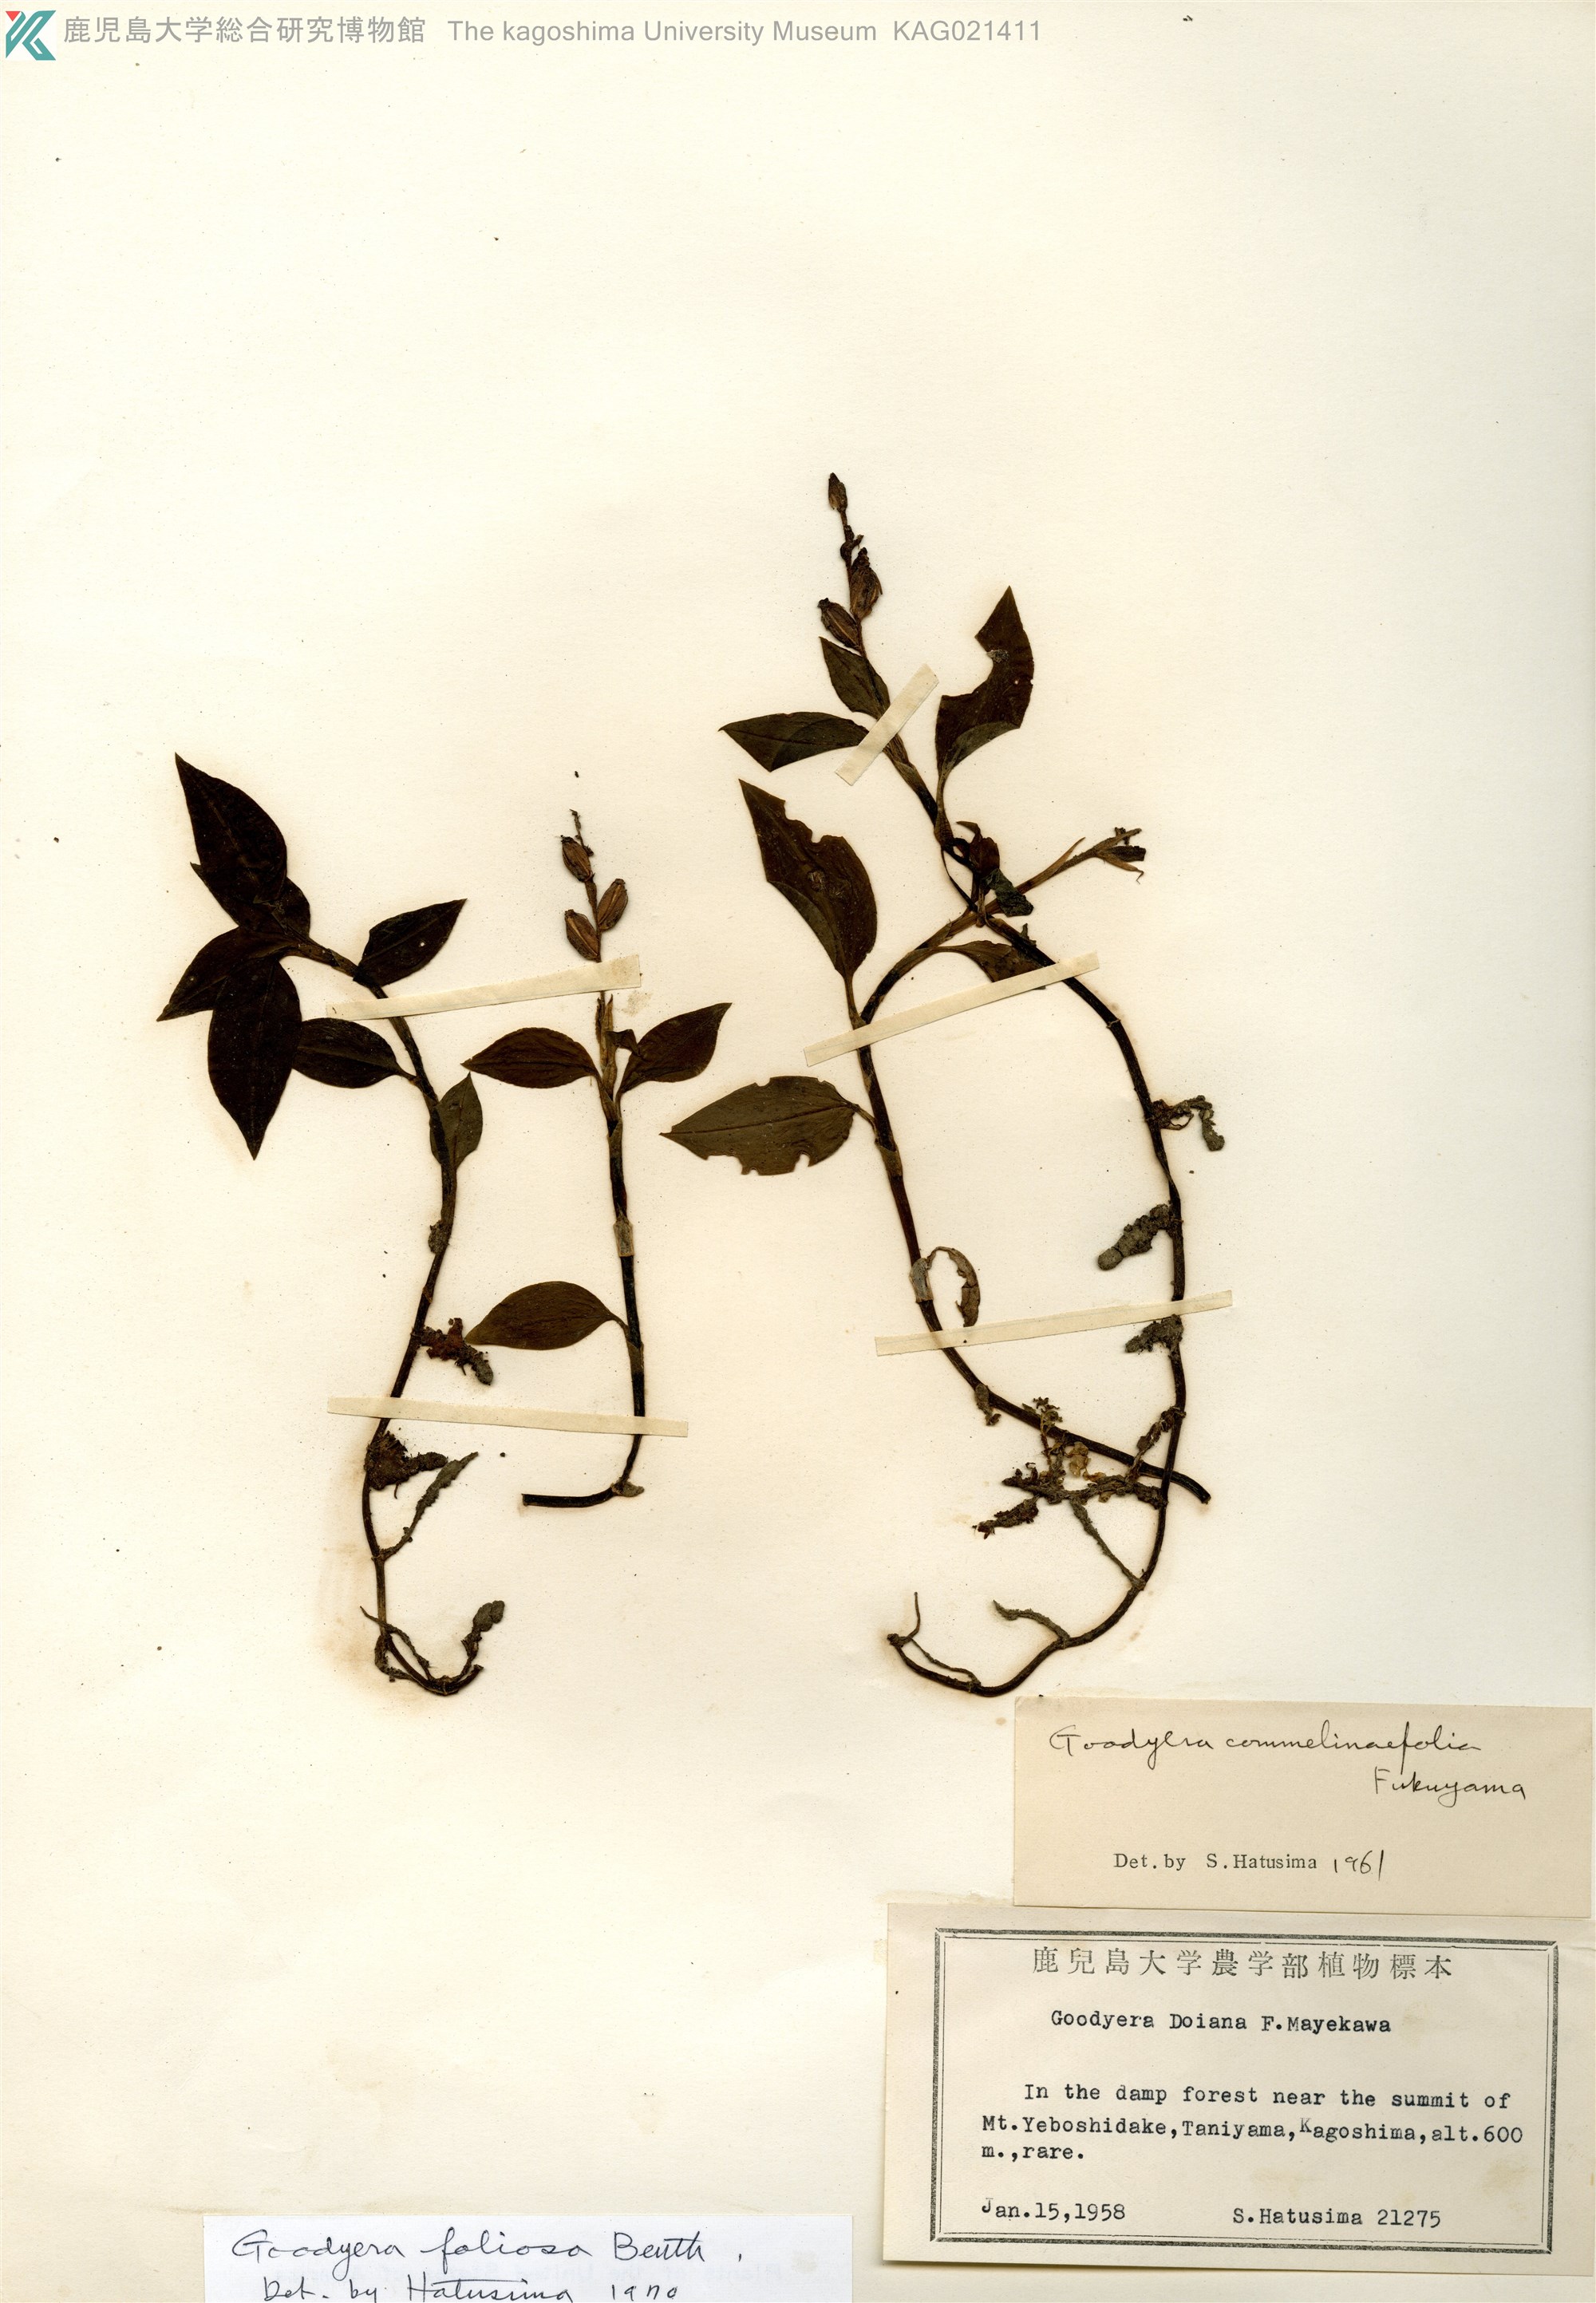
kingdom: Plantae
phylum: Tracheophyta
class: Liliopsida
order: Asparagales
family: Orchidaceae
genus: Goodyera
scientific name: Goodyera foliosa
